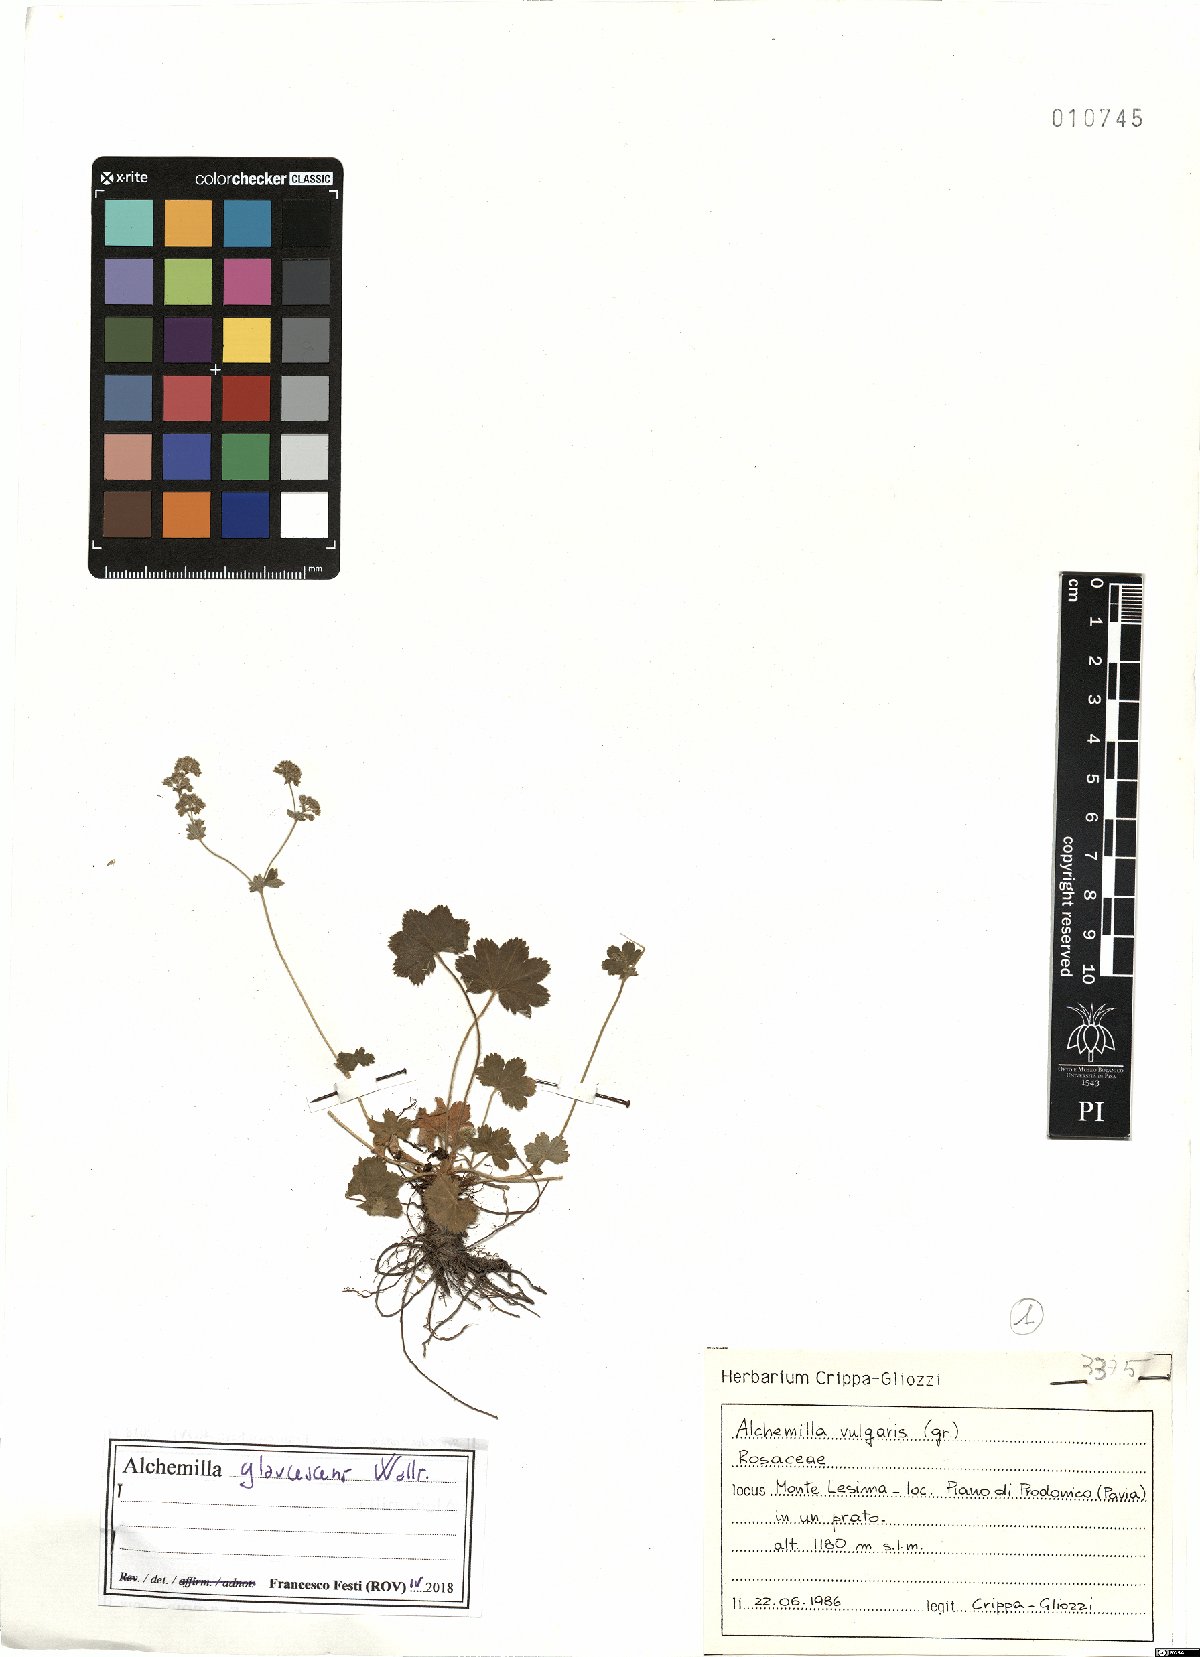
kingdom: Plantae
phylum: Tracheophyta
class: Magnoliopsida
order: Rosales
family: Rosaceae
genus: Alchemilla
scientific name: Alchemilla glaucescens
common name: Silky lady's mantle
